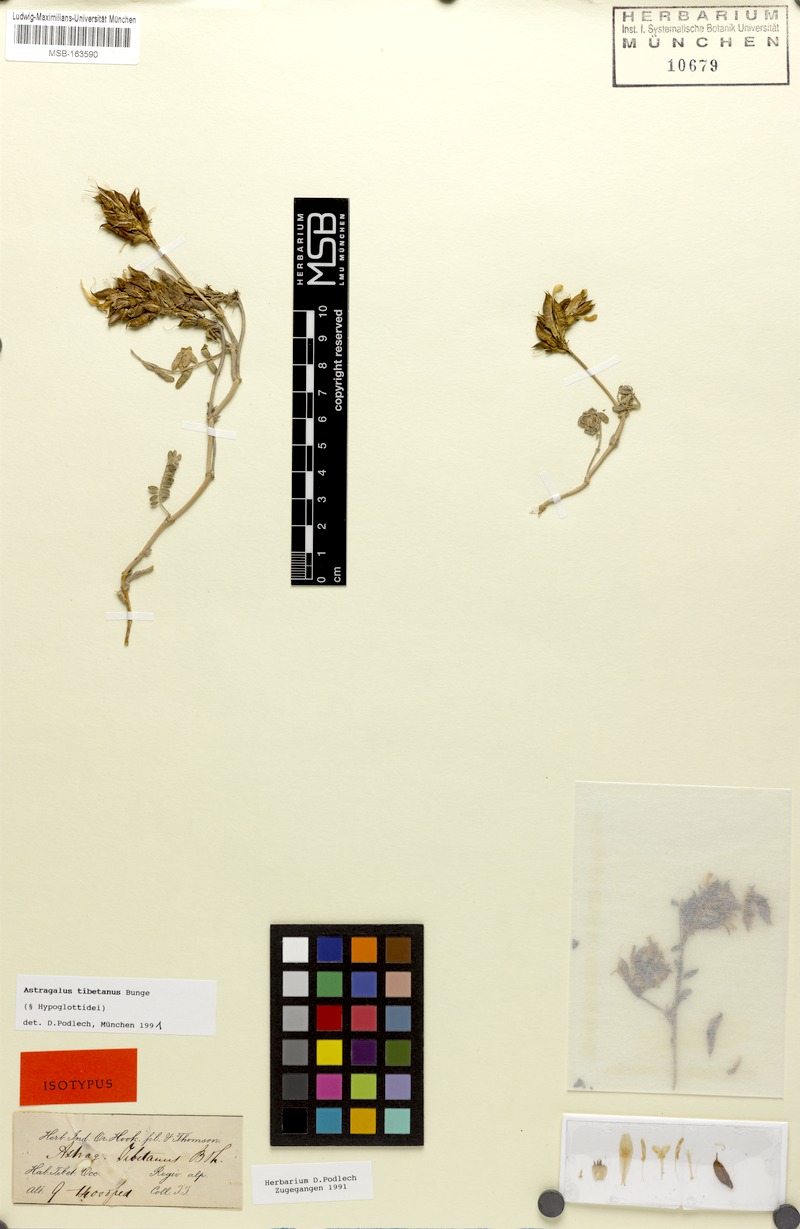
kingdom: Plantae
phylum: Tracheophyta
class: Magnoliopsida
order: Fabales
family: Fabaceae
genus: Astragalus
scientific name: Astragalus tibetanus
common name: Tibet milkvetch
